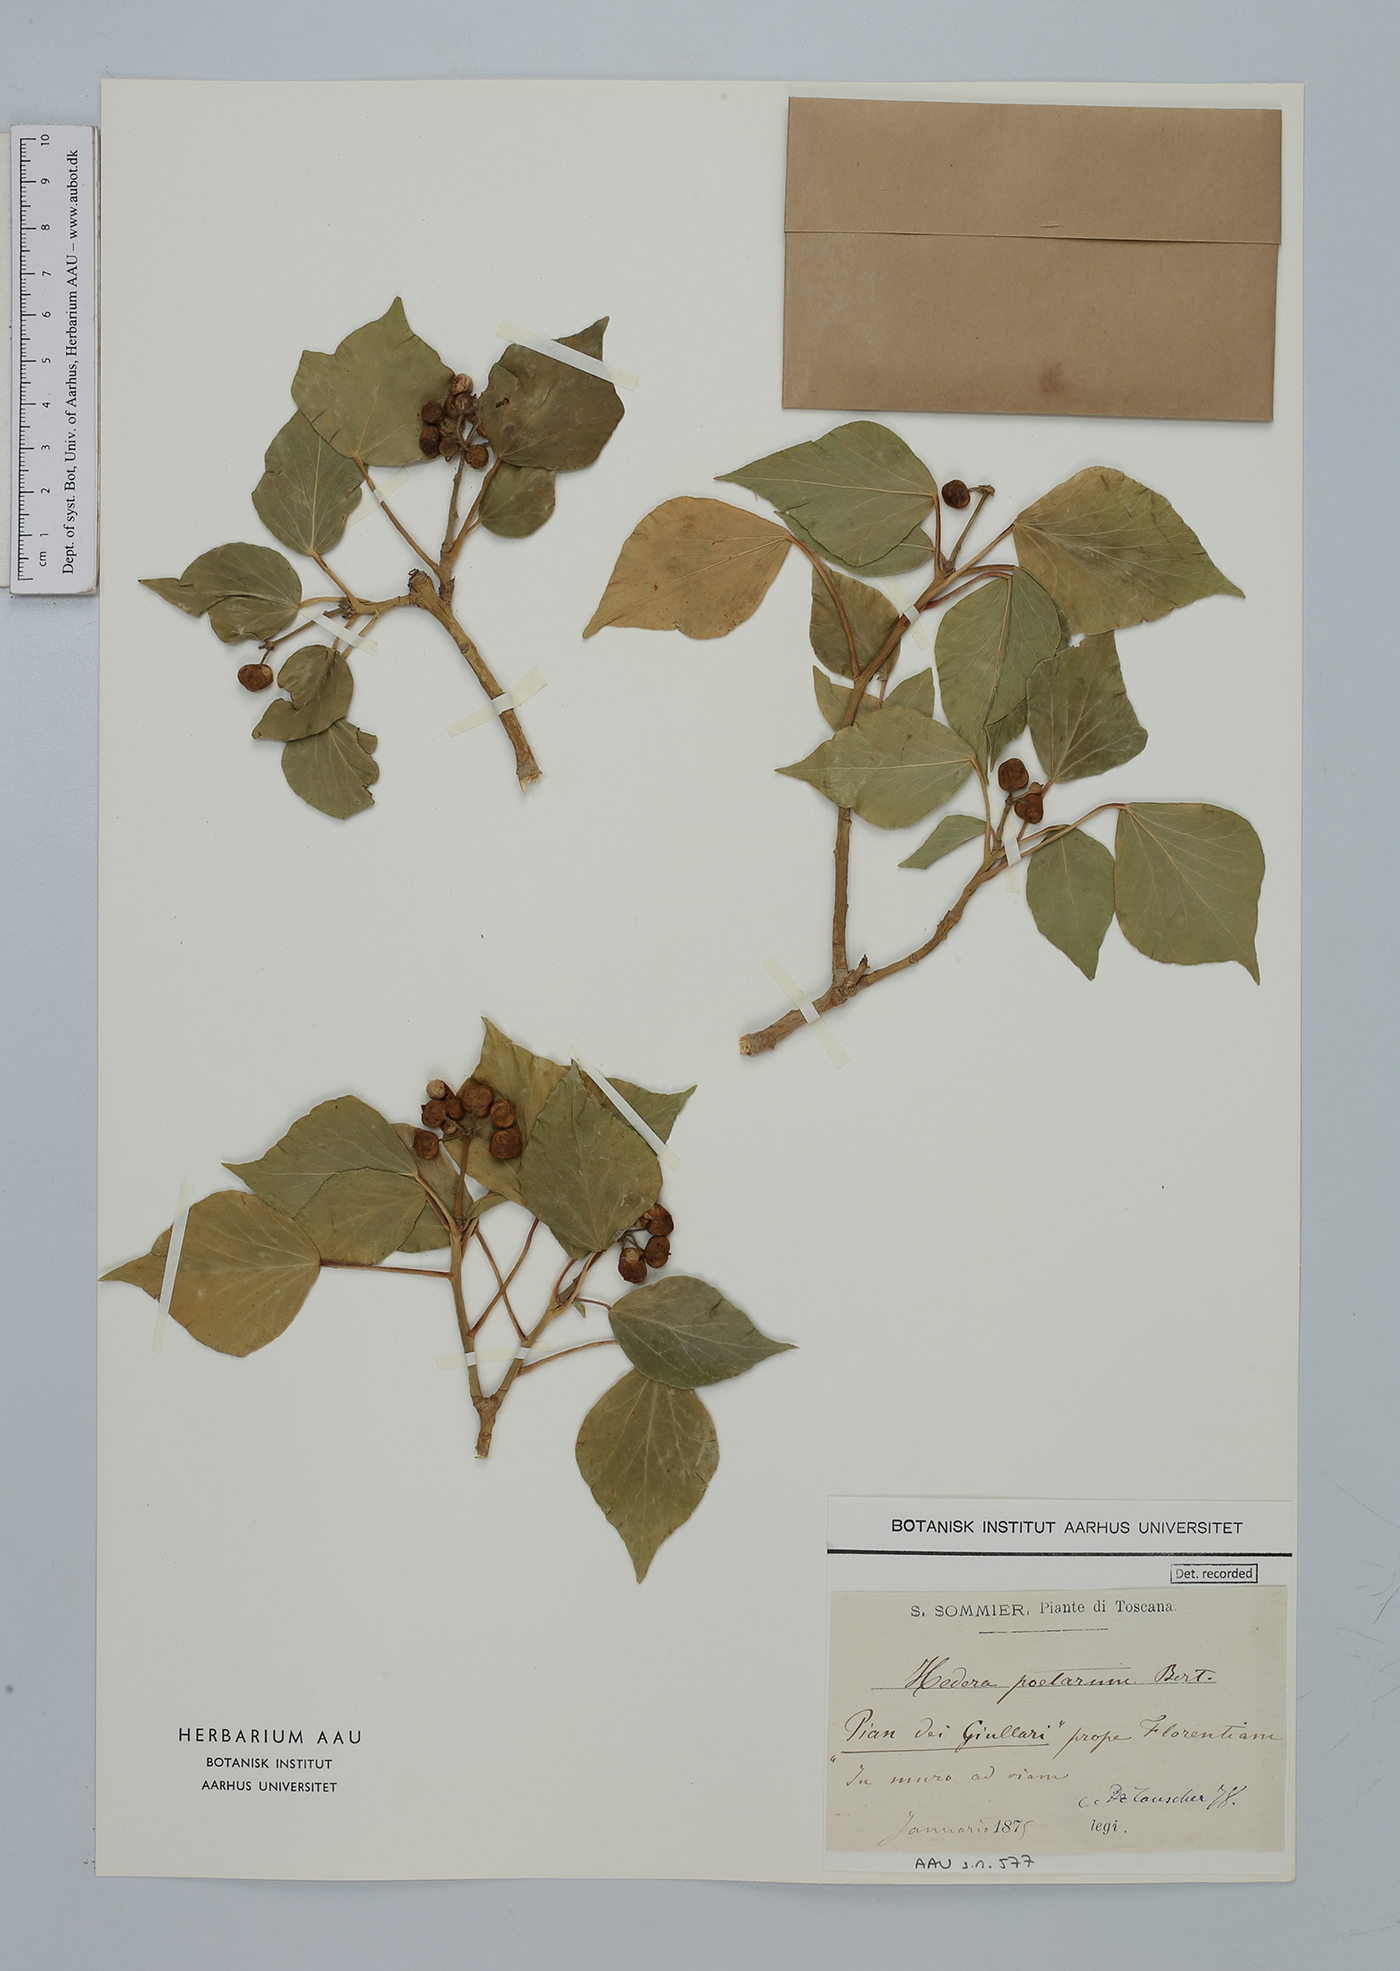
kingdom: Plantae
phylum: Tracheophyta
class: Magnoliopsida
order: Apiales
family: Araliaceae
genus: Hedera
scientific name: Hedera helix
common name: Ivy
